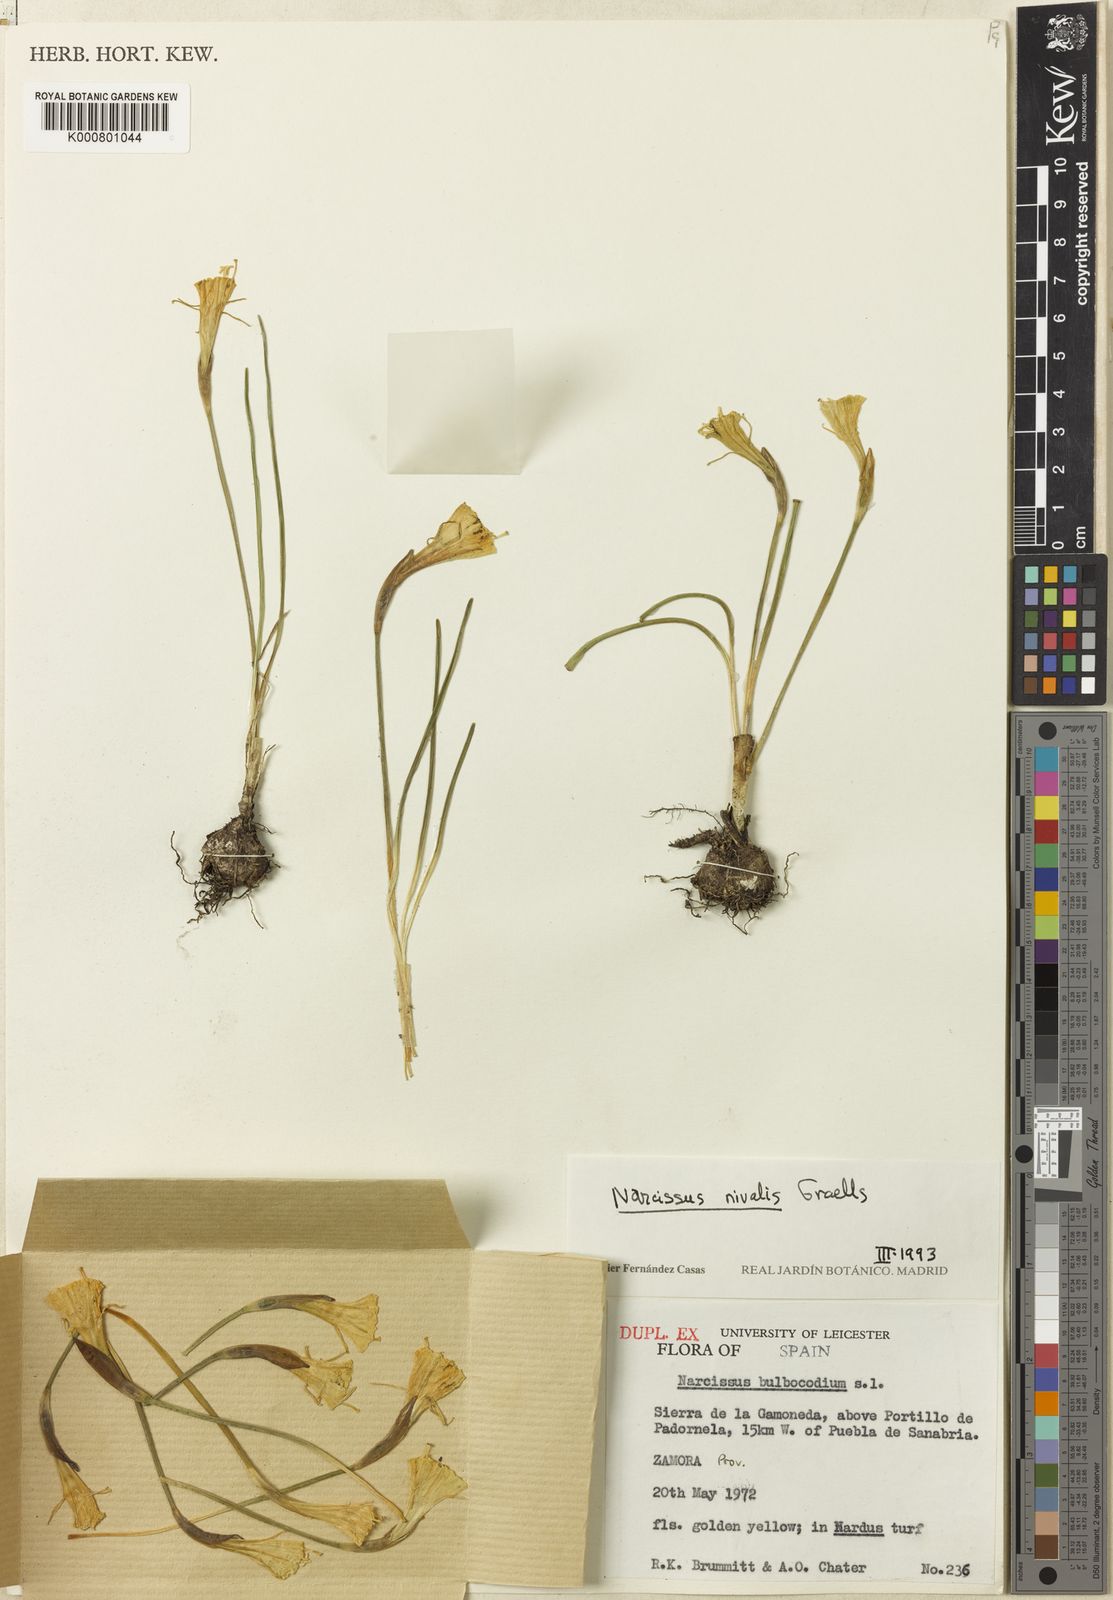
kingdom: Plantae
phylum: Tracheophyta
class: Liliopsida
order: Asparagales
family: Amaryllidaceae
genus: Narcissus
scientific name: Narcissus bulbocodium
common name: Hoop-petticoat daffodil
